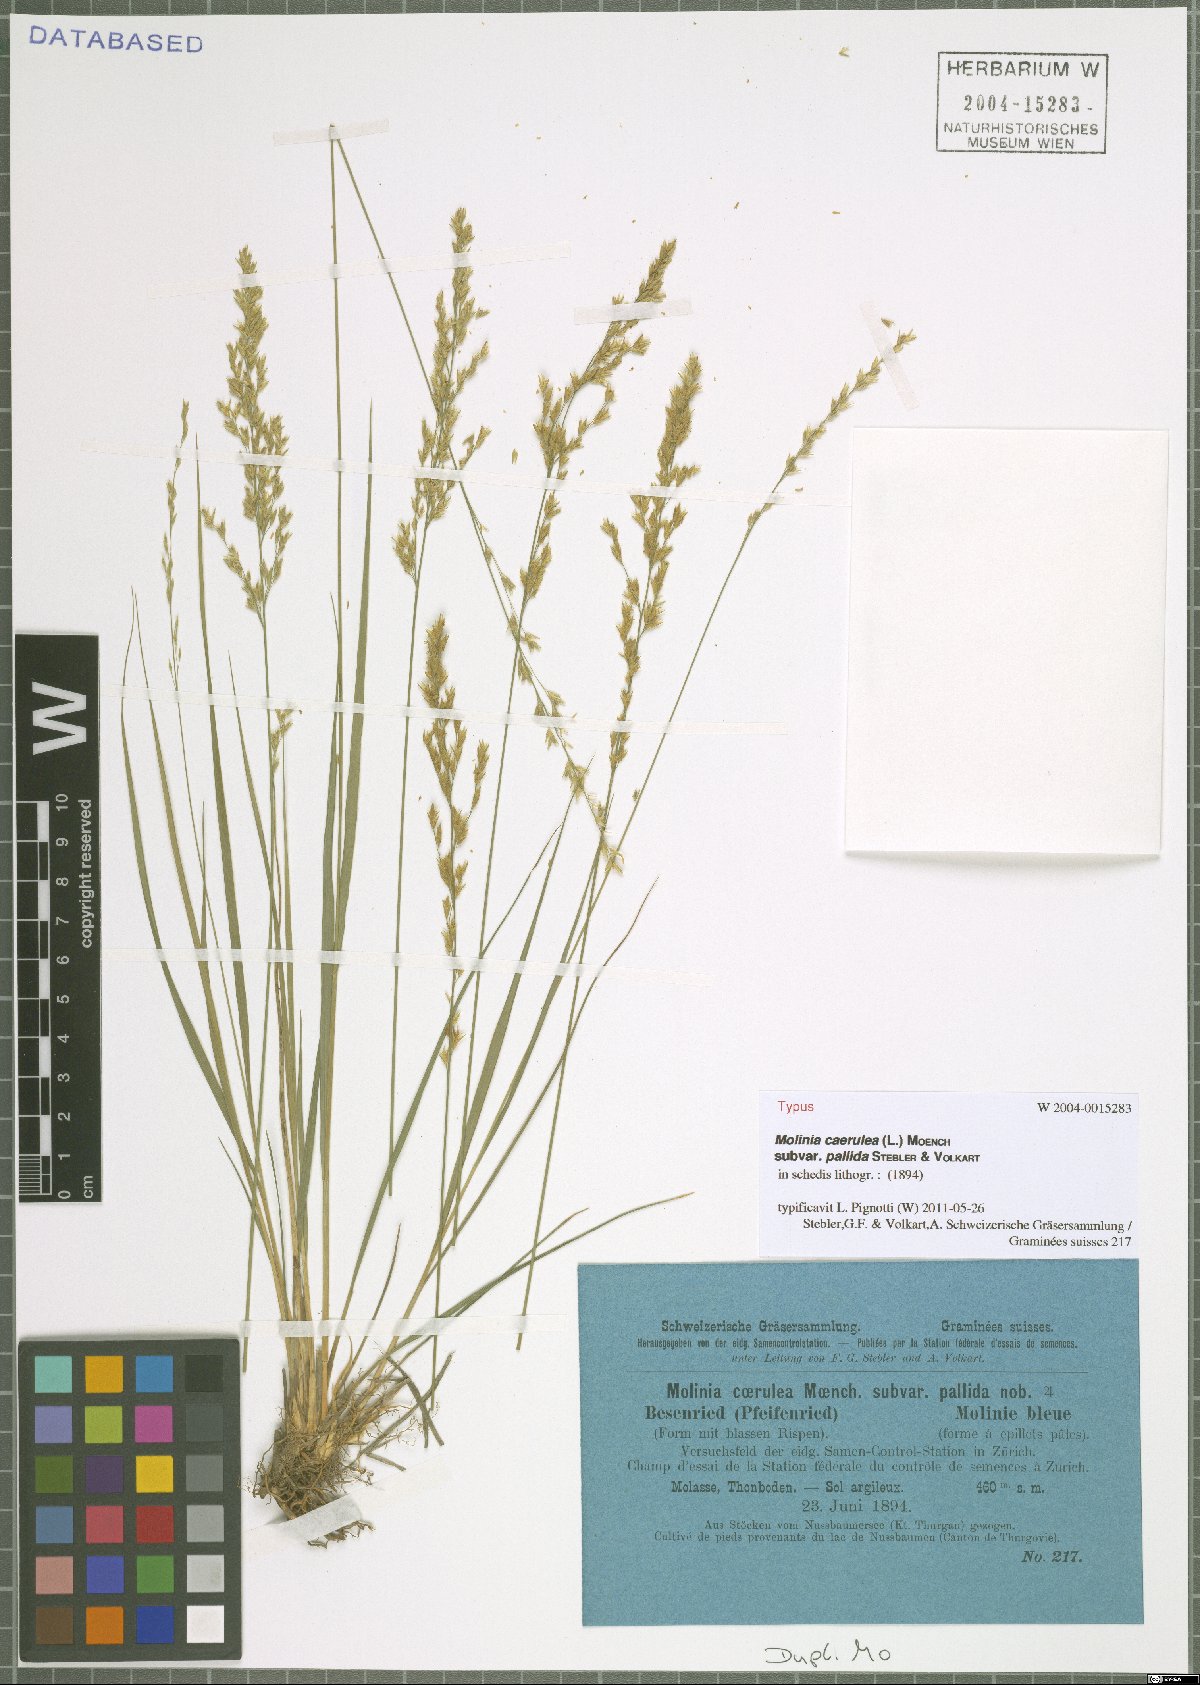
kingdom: Plantae
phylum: Tracheophyta
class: Liliopsida
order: Poales
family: Poaceae
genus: Molinia
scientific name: Molinia caerulea
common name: Purple moor-grass
